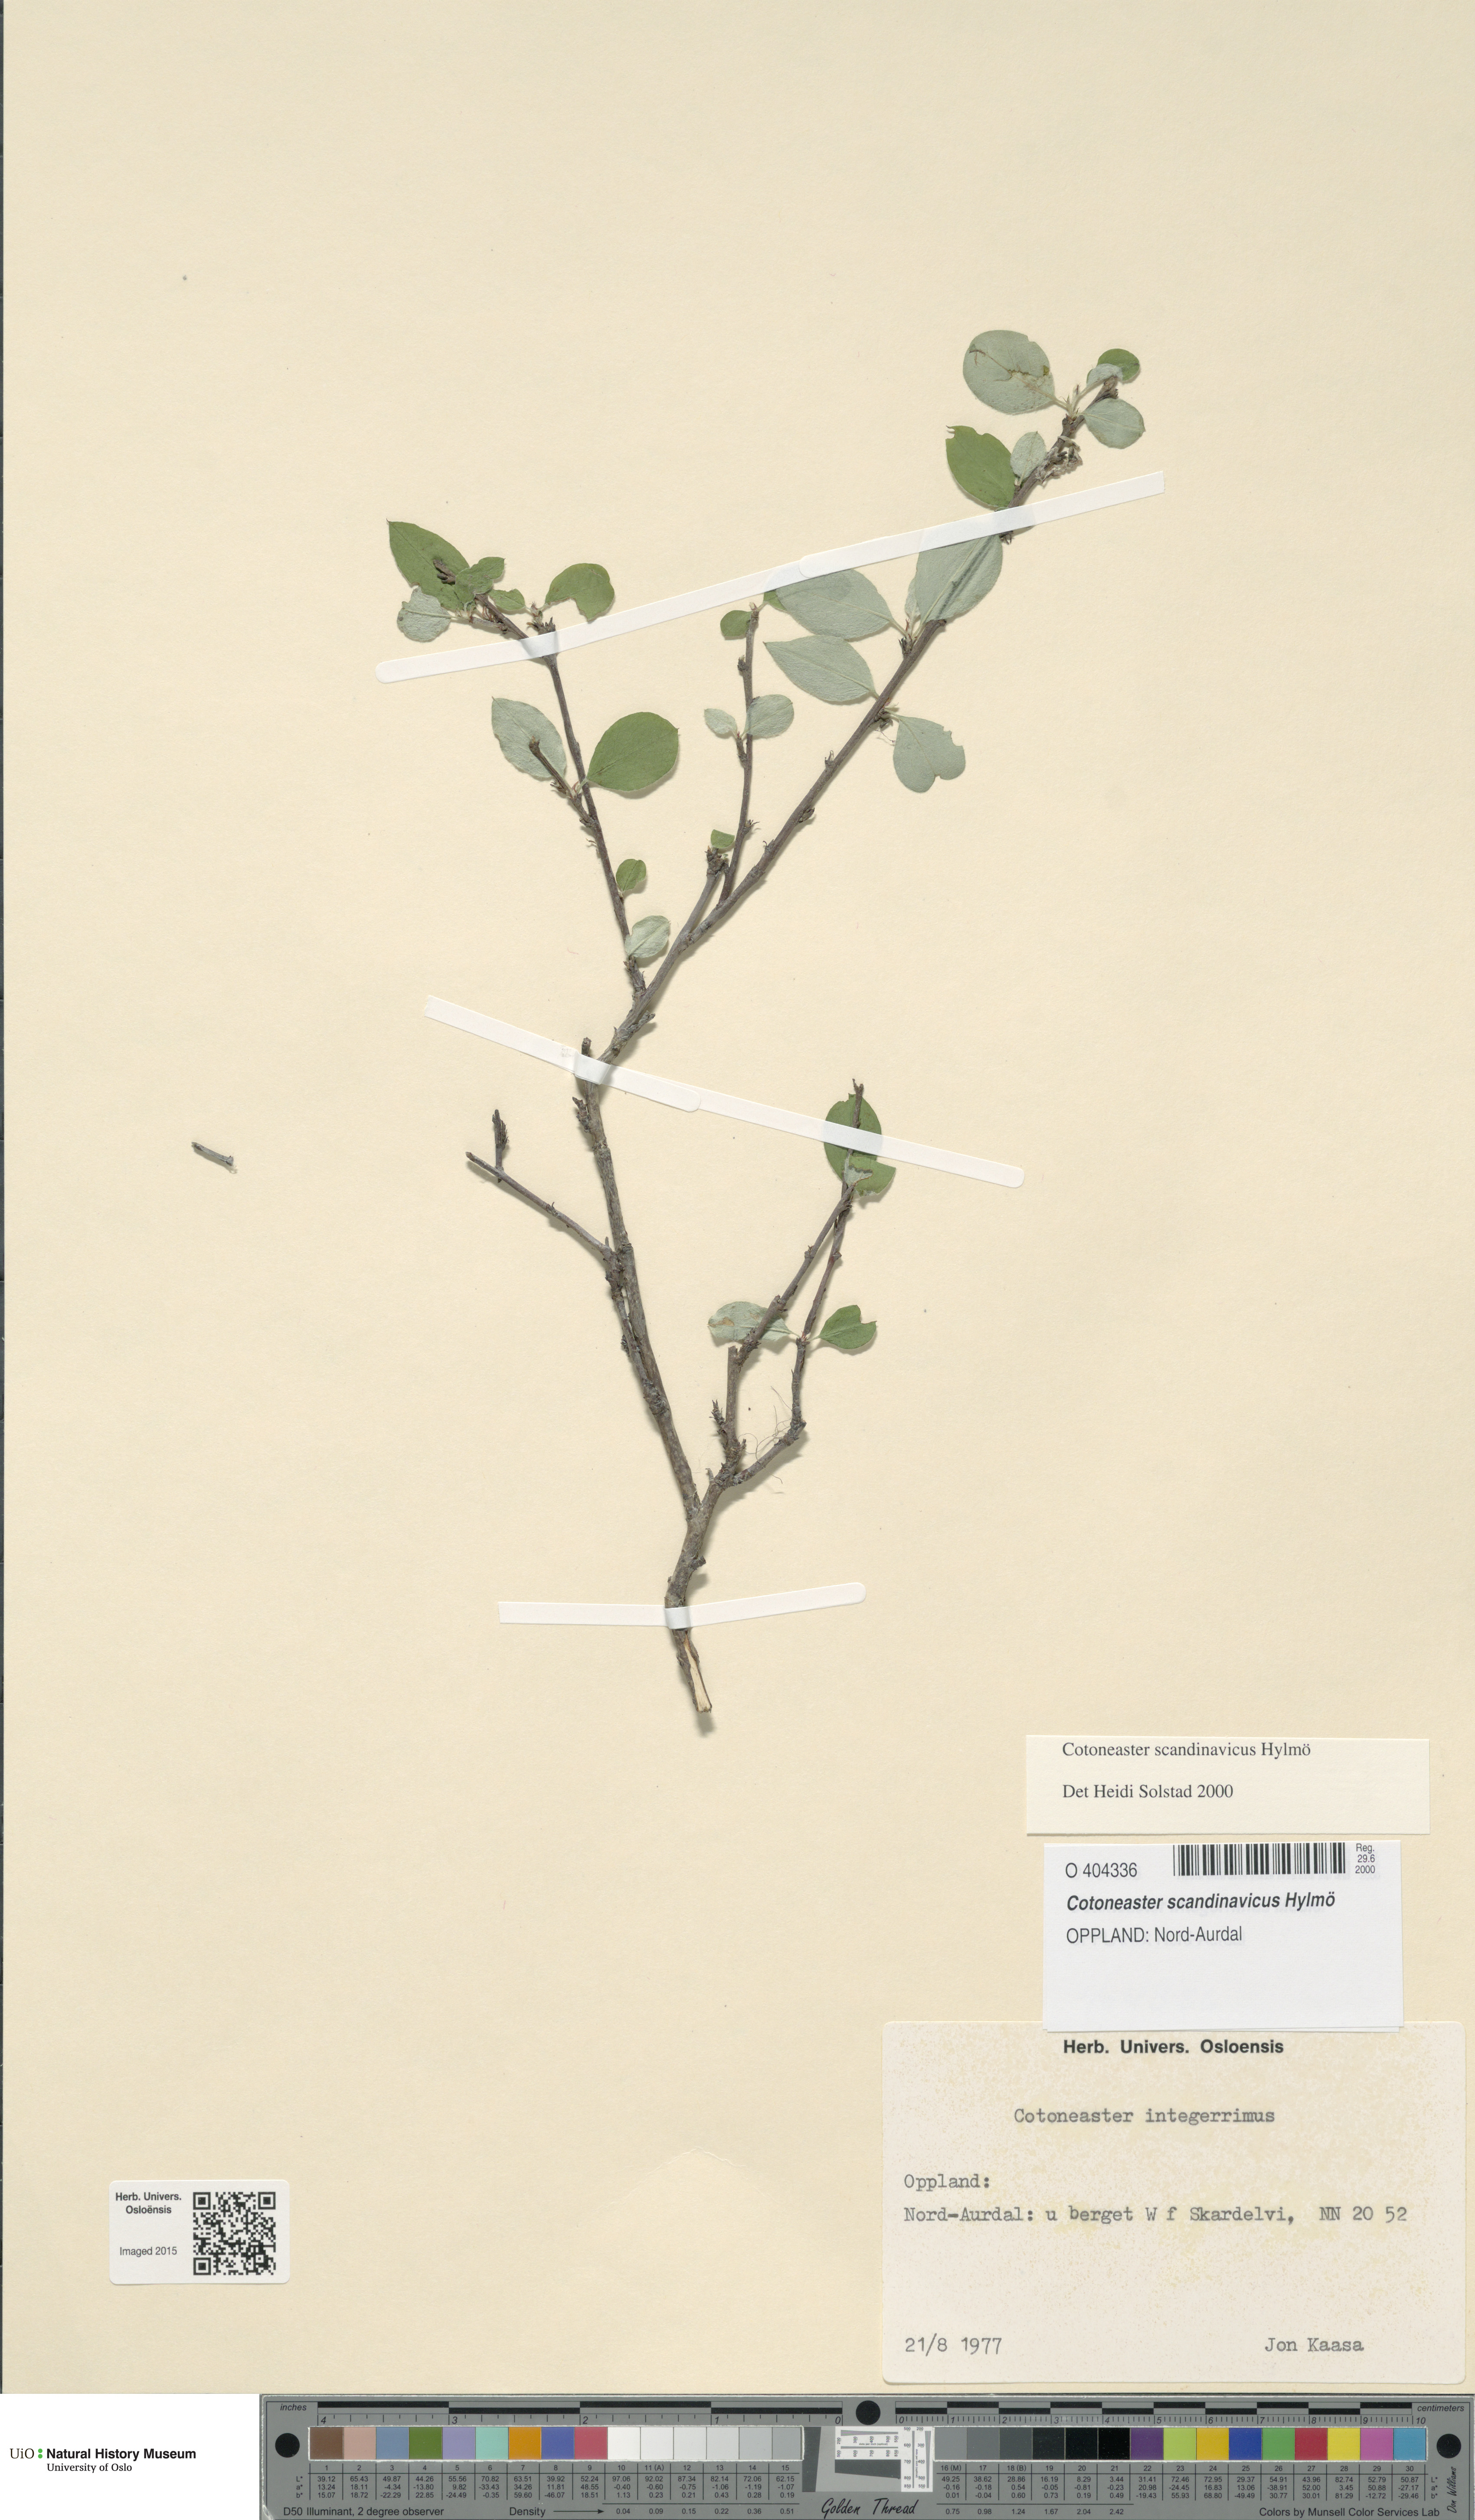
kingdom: Plantae
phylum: Tracheophyta
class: Magnoliopsida
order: Rosales
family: Rosaceae
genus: Cotoneaster
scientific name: Cotoneaster integerrimus
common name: Wild cotoneaster
